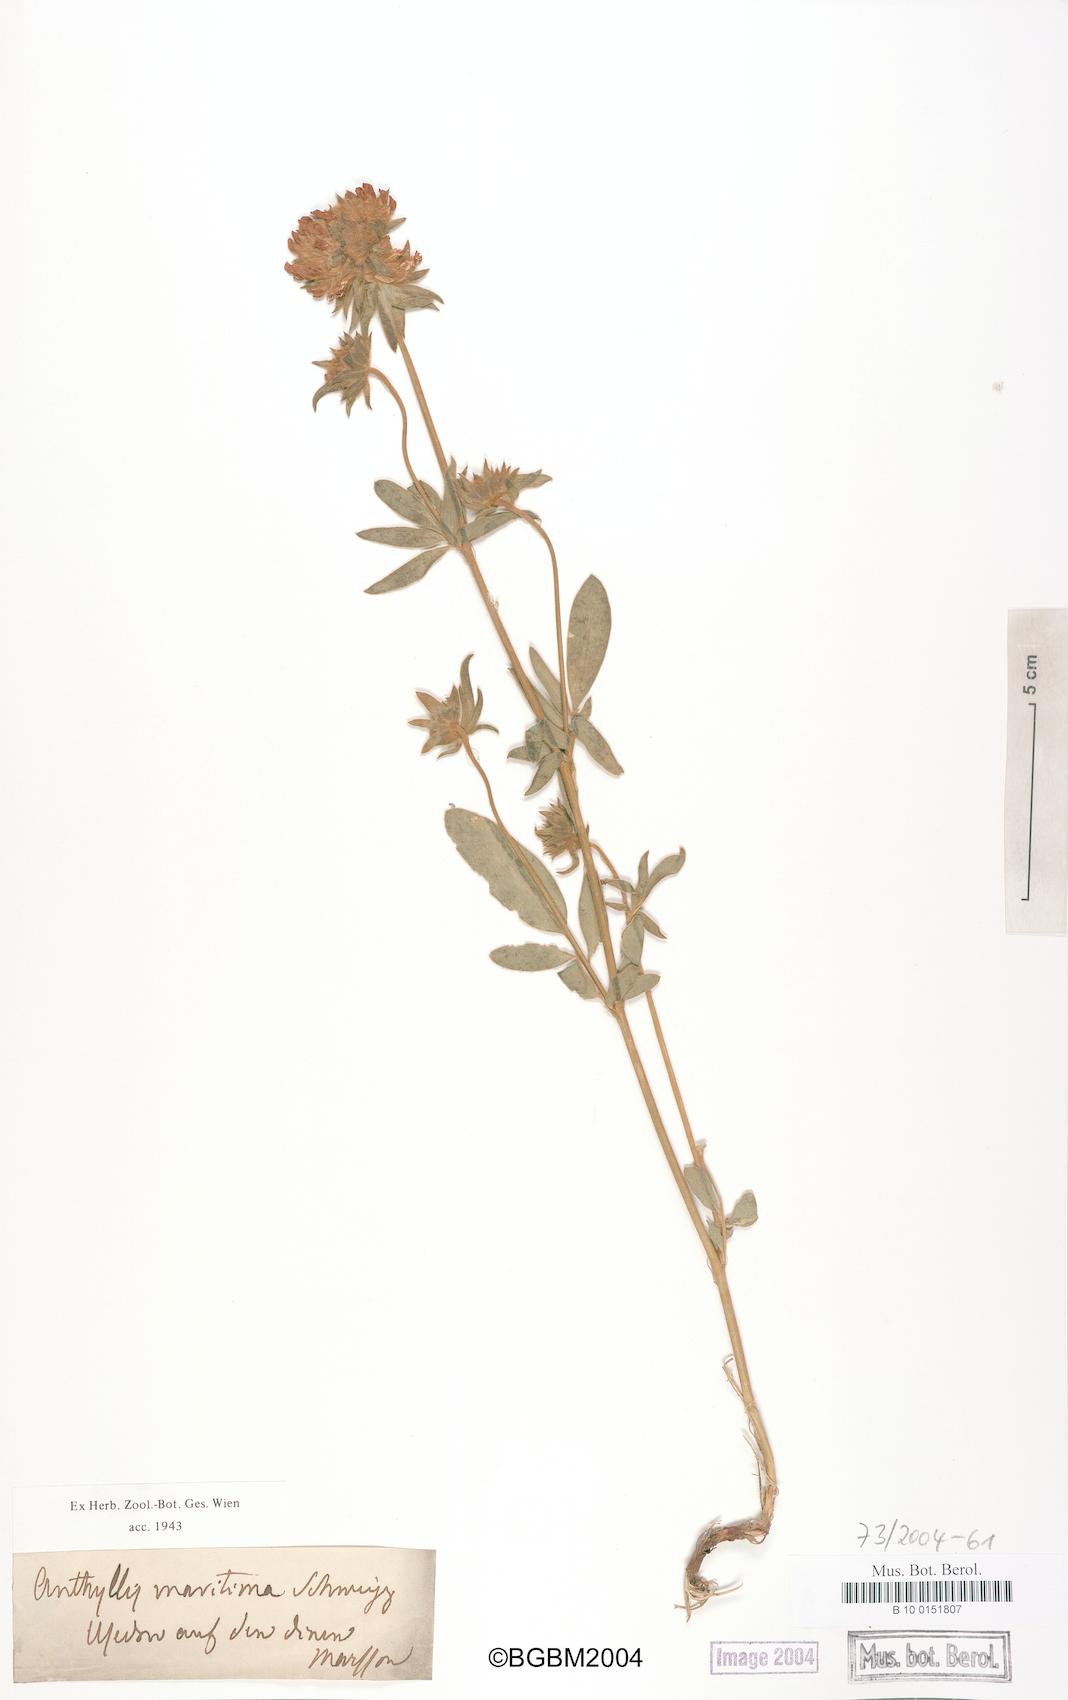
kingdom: Plantae
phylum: Tracheophyta
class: Magnoliopsida
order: Fabales
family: Fabaceae
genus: Anthyllis
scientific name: Anthyllis vulneraria
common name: Kidney vetch
